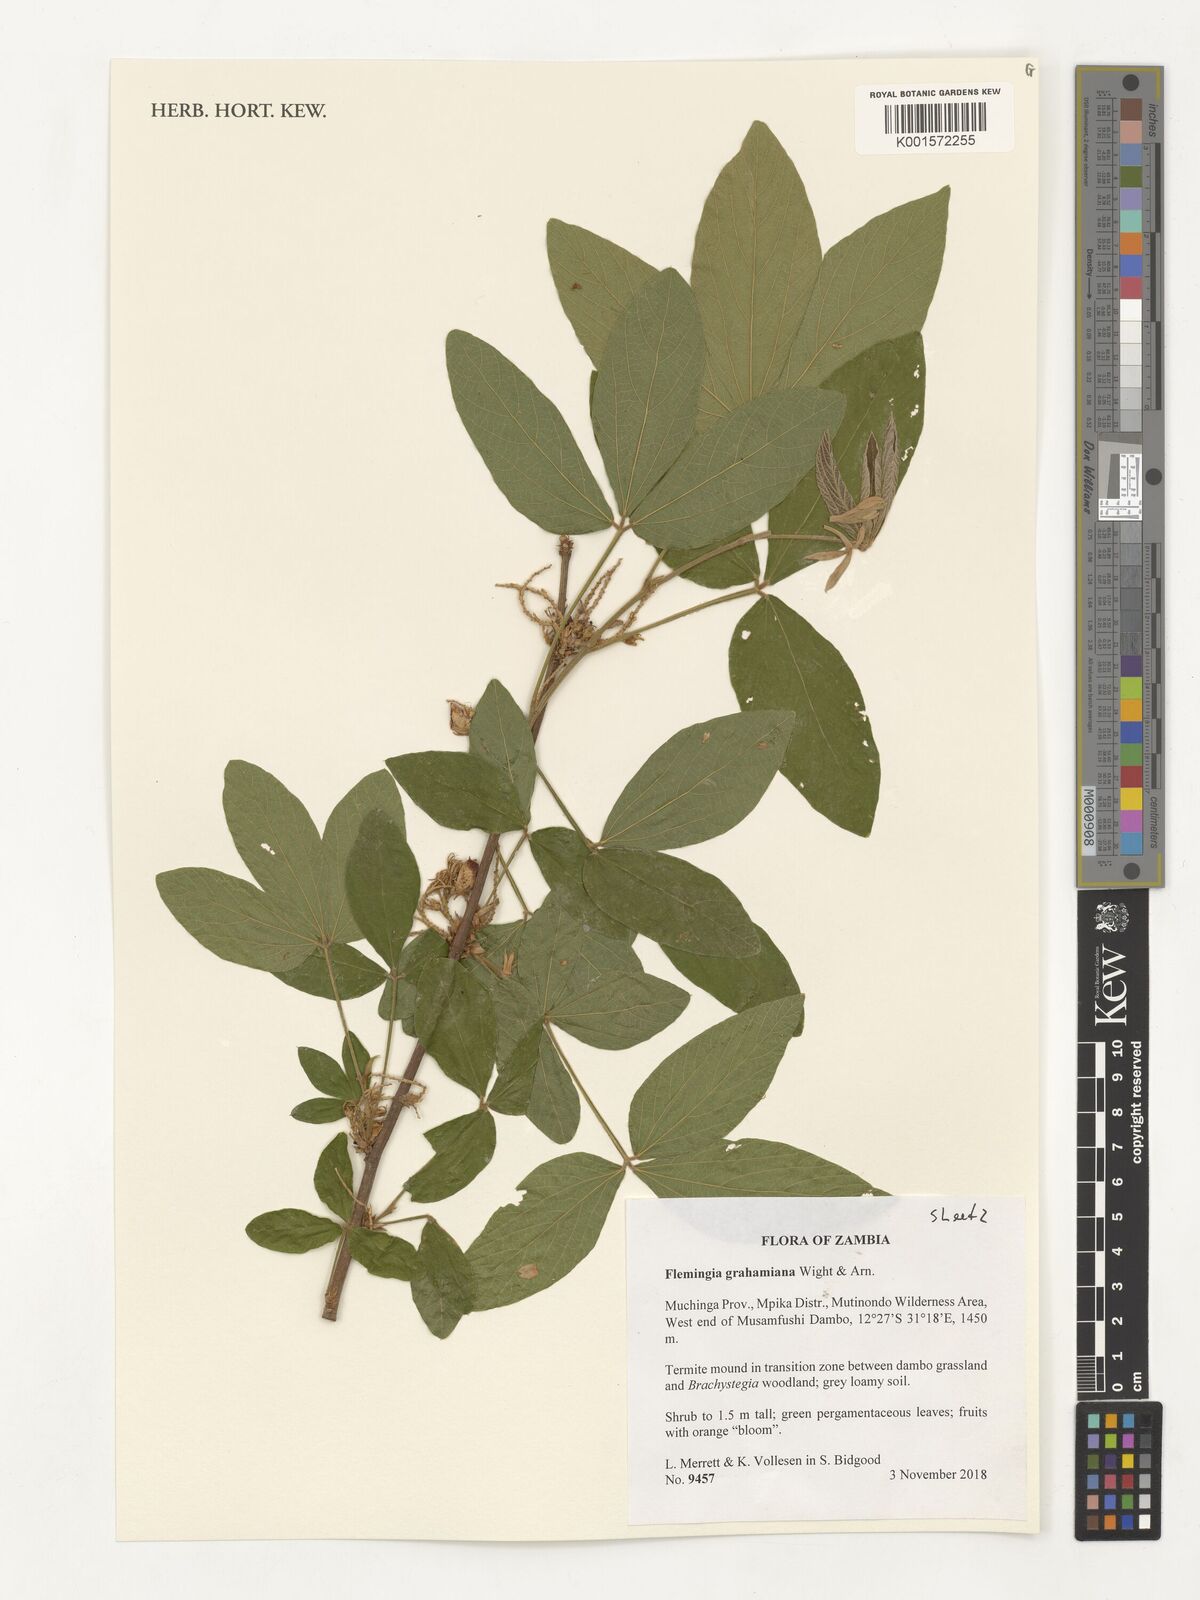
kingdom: Plantae
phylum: Tracheophyta
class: Magnoliopsida
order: Fabales
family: Fabaceae
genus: Flemingia
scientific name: Flemingia grahamiana
